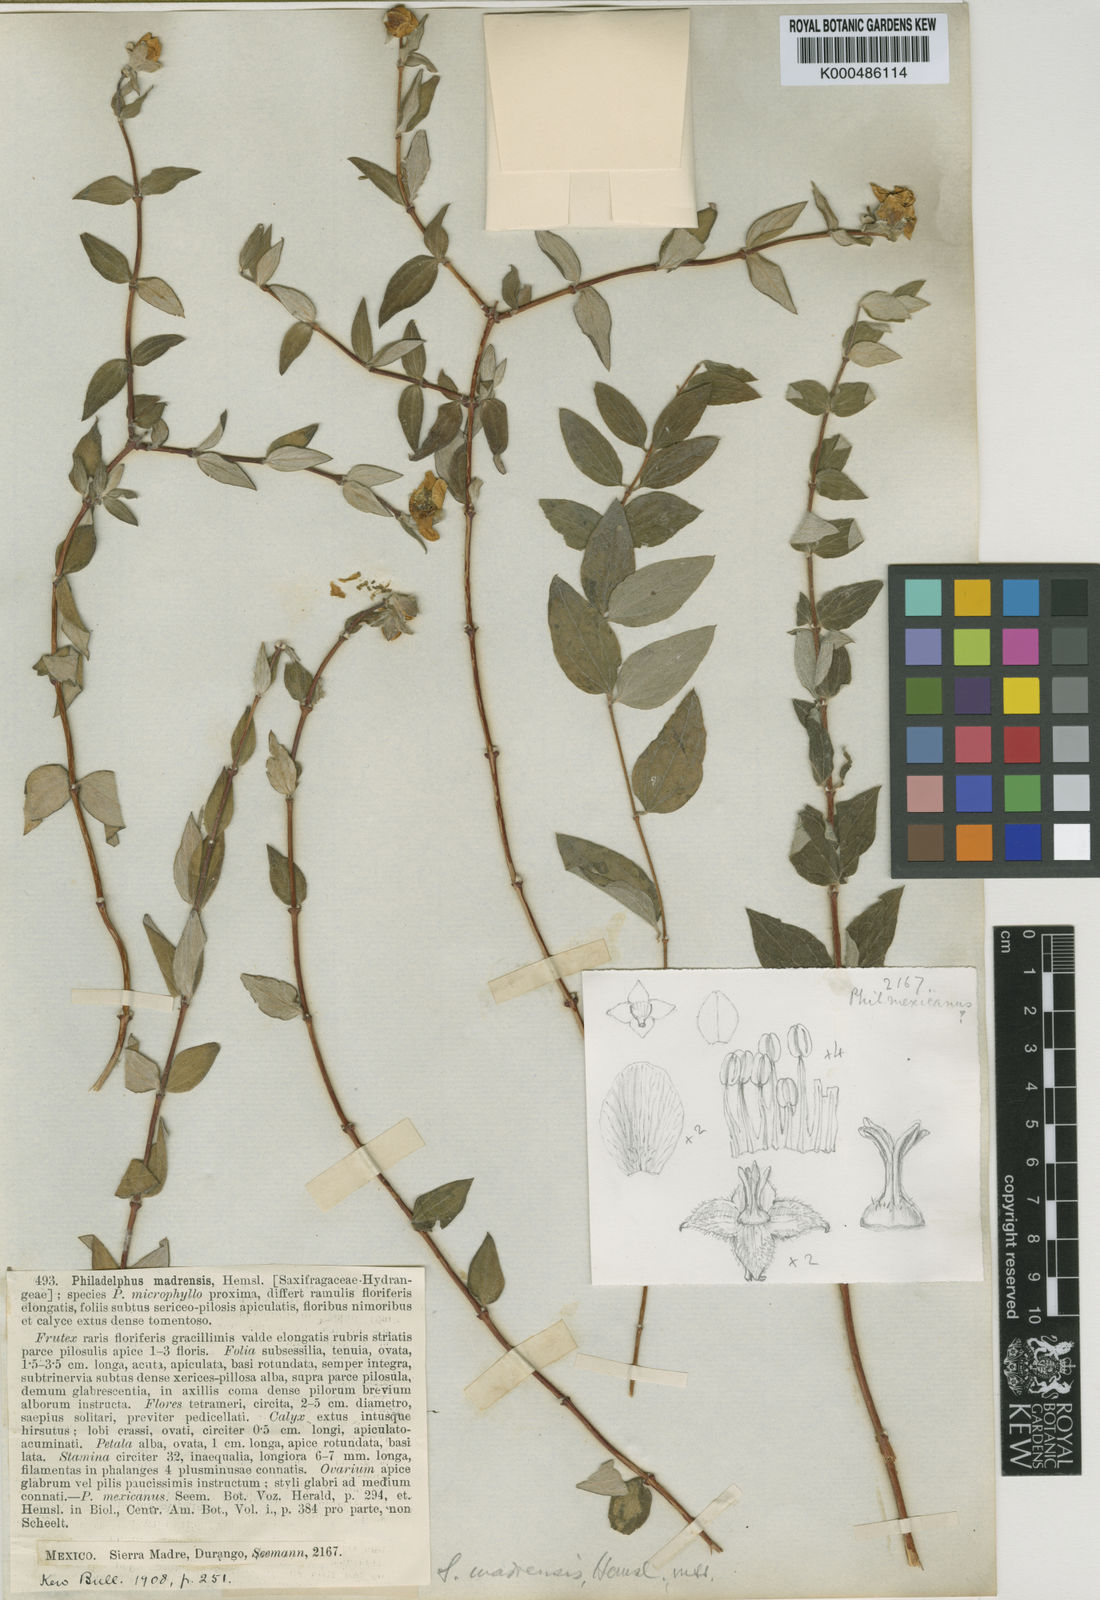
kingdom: Plantae
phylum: Tracheophyta
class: Magnoliopsida
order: Cornales
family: Hydrangeaceae
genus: Philadelphus
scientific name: Philadelphus microphyllus
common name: Desert mock orange
